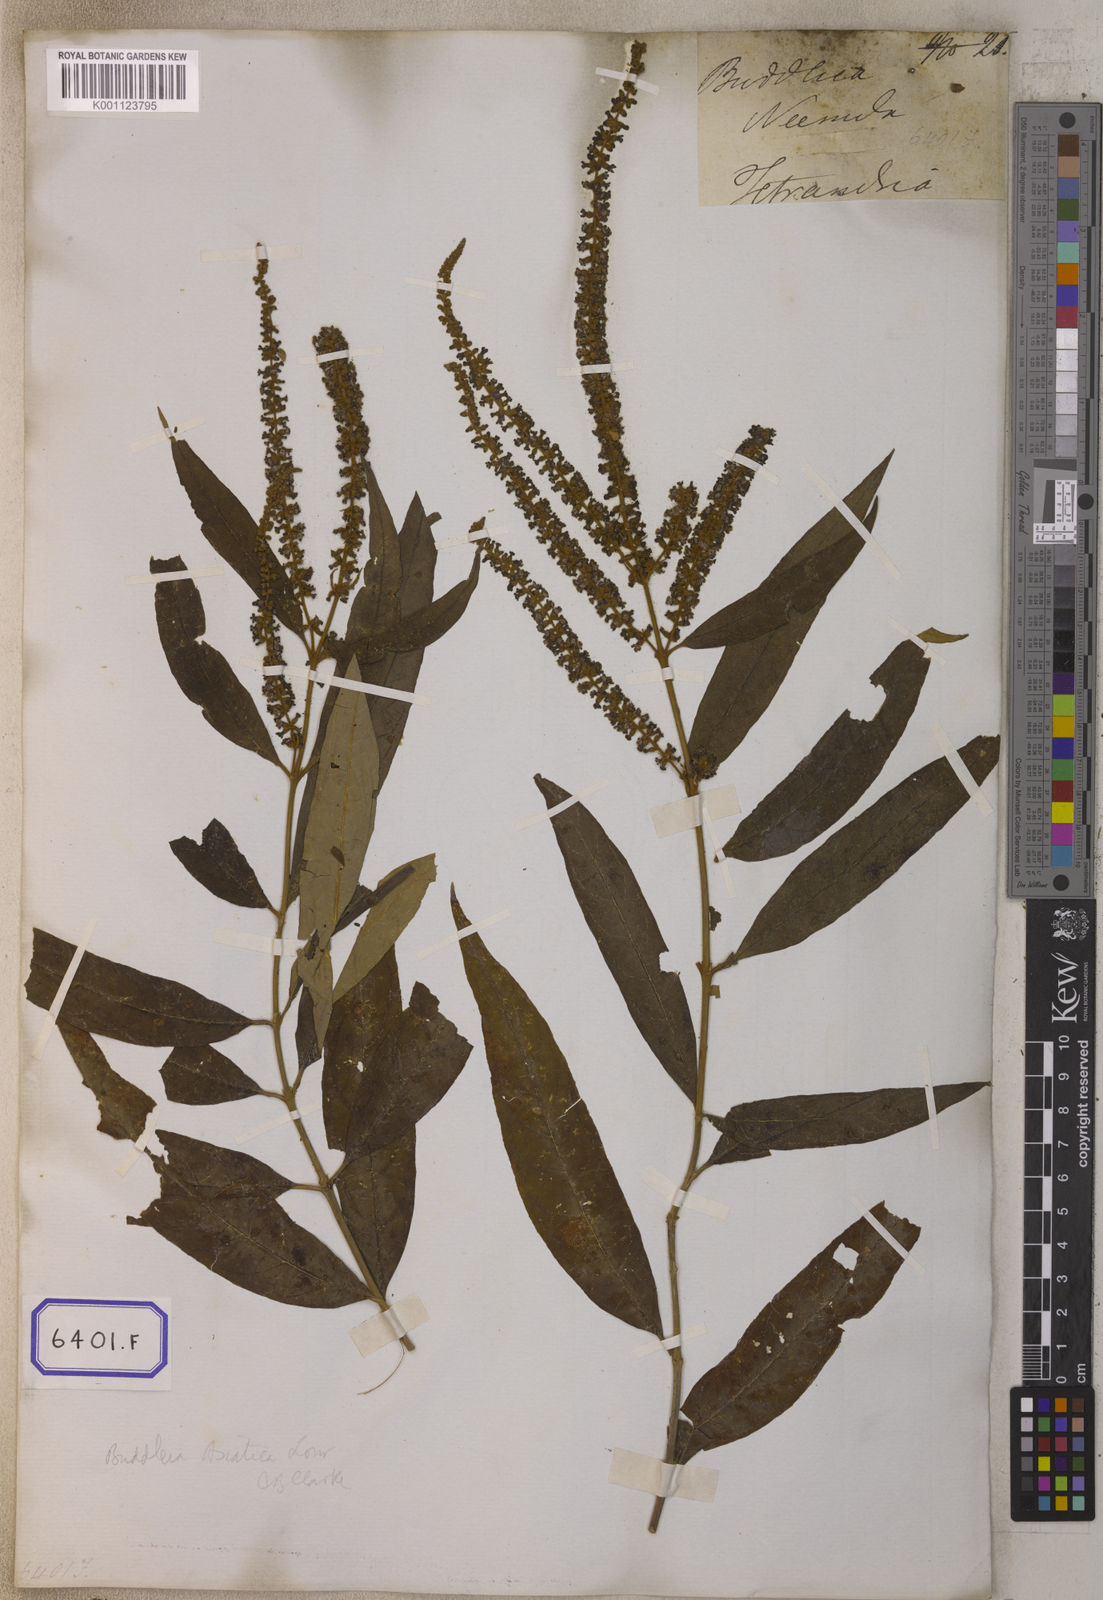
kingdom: Plantae
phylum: Tracheophyta
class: Magnoliopsida
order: Lamiales
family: Scrophulariaceae
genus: Buddleja
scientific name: Buddleja
